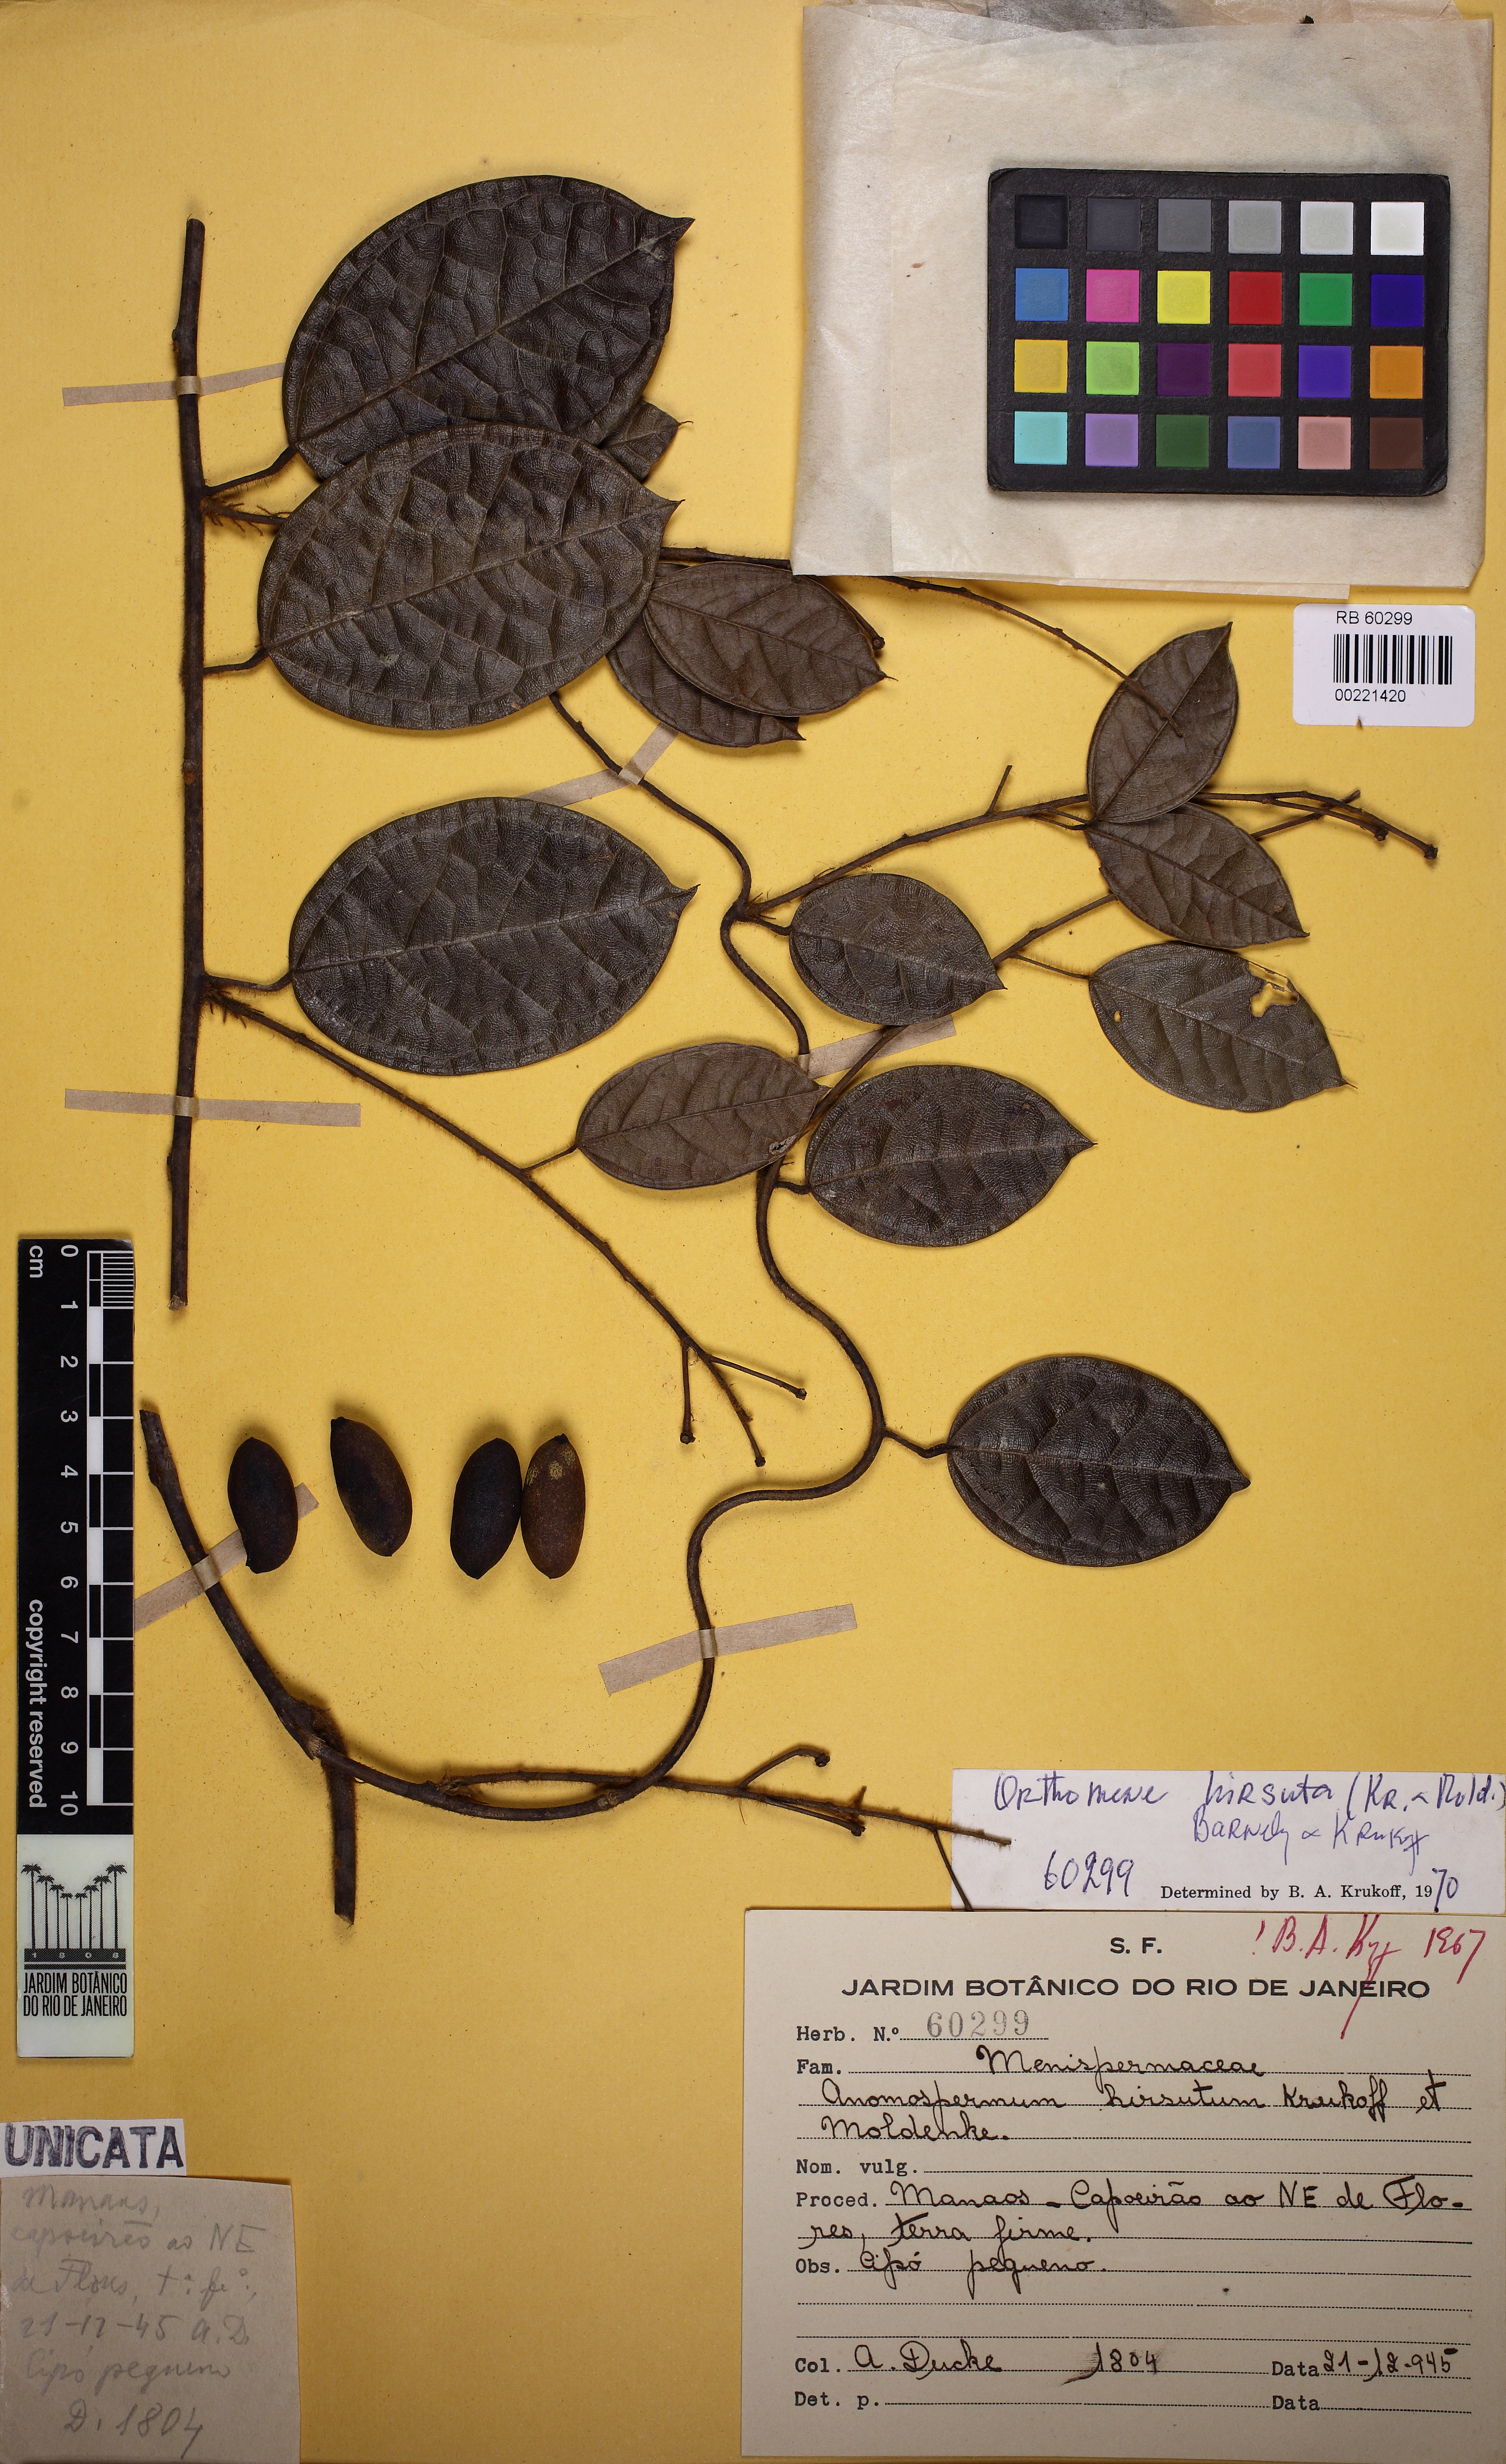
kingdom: Plantae
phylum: Tracheophyta
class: Magnoliopsida
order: Ranunculales
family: Menispermaceae
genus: Orthomene
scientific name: Orthomene hirsuta
